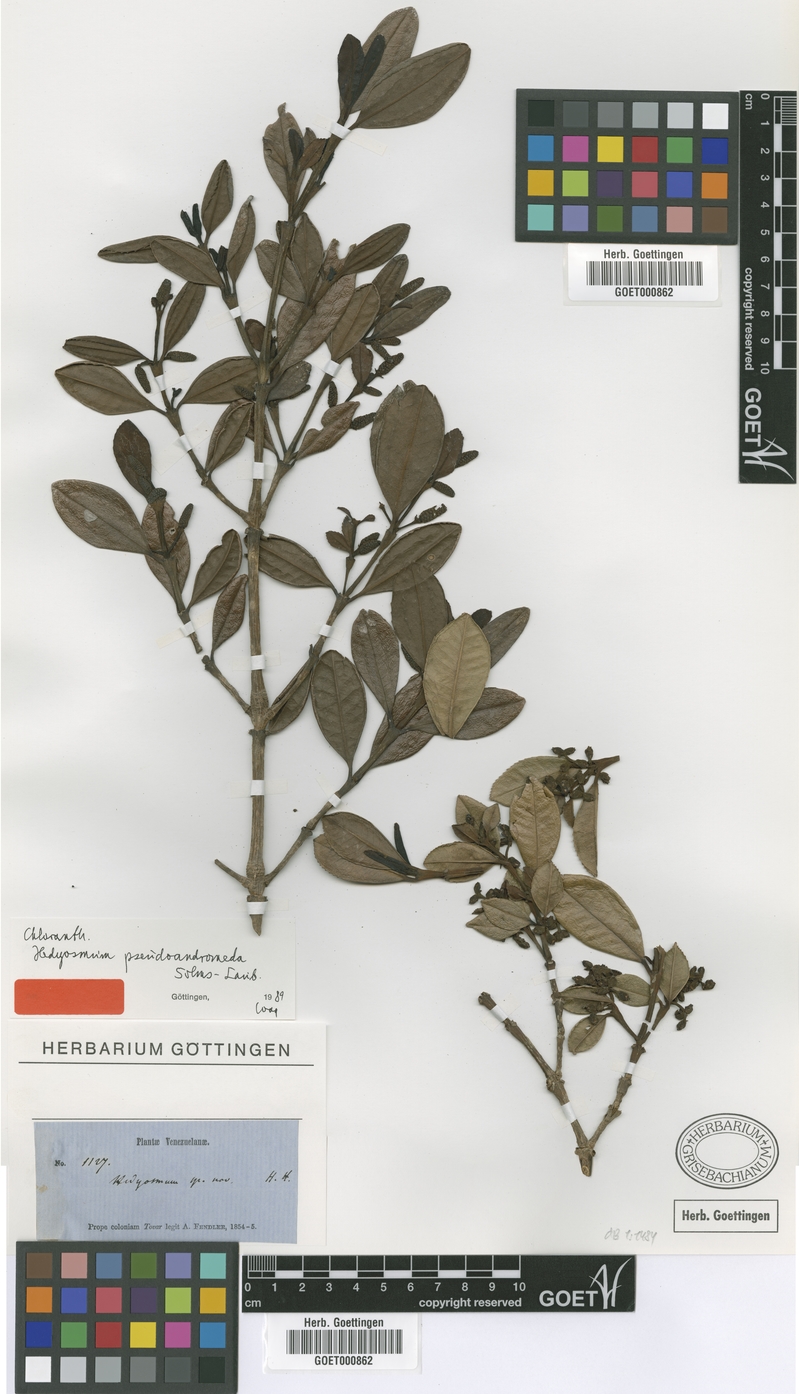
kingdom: Plantae
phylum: Tracheophyta
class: Magnoliopsida
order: Chloranthales
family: Chloranthaceae
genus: Hedyosmum
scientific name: Hedyosmum pseudoandromeda
